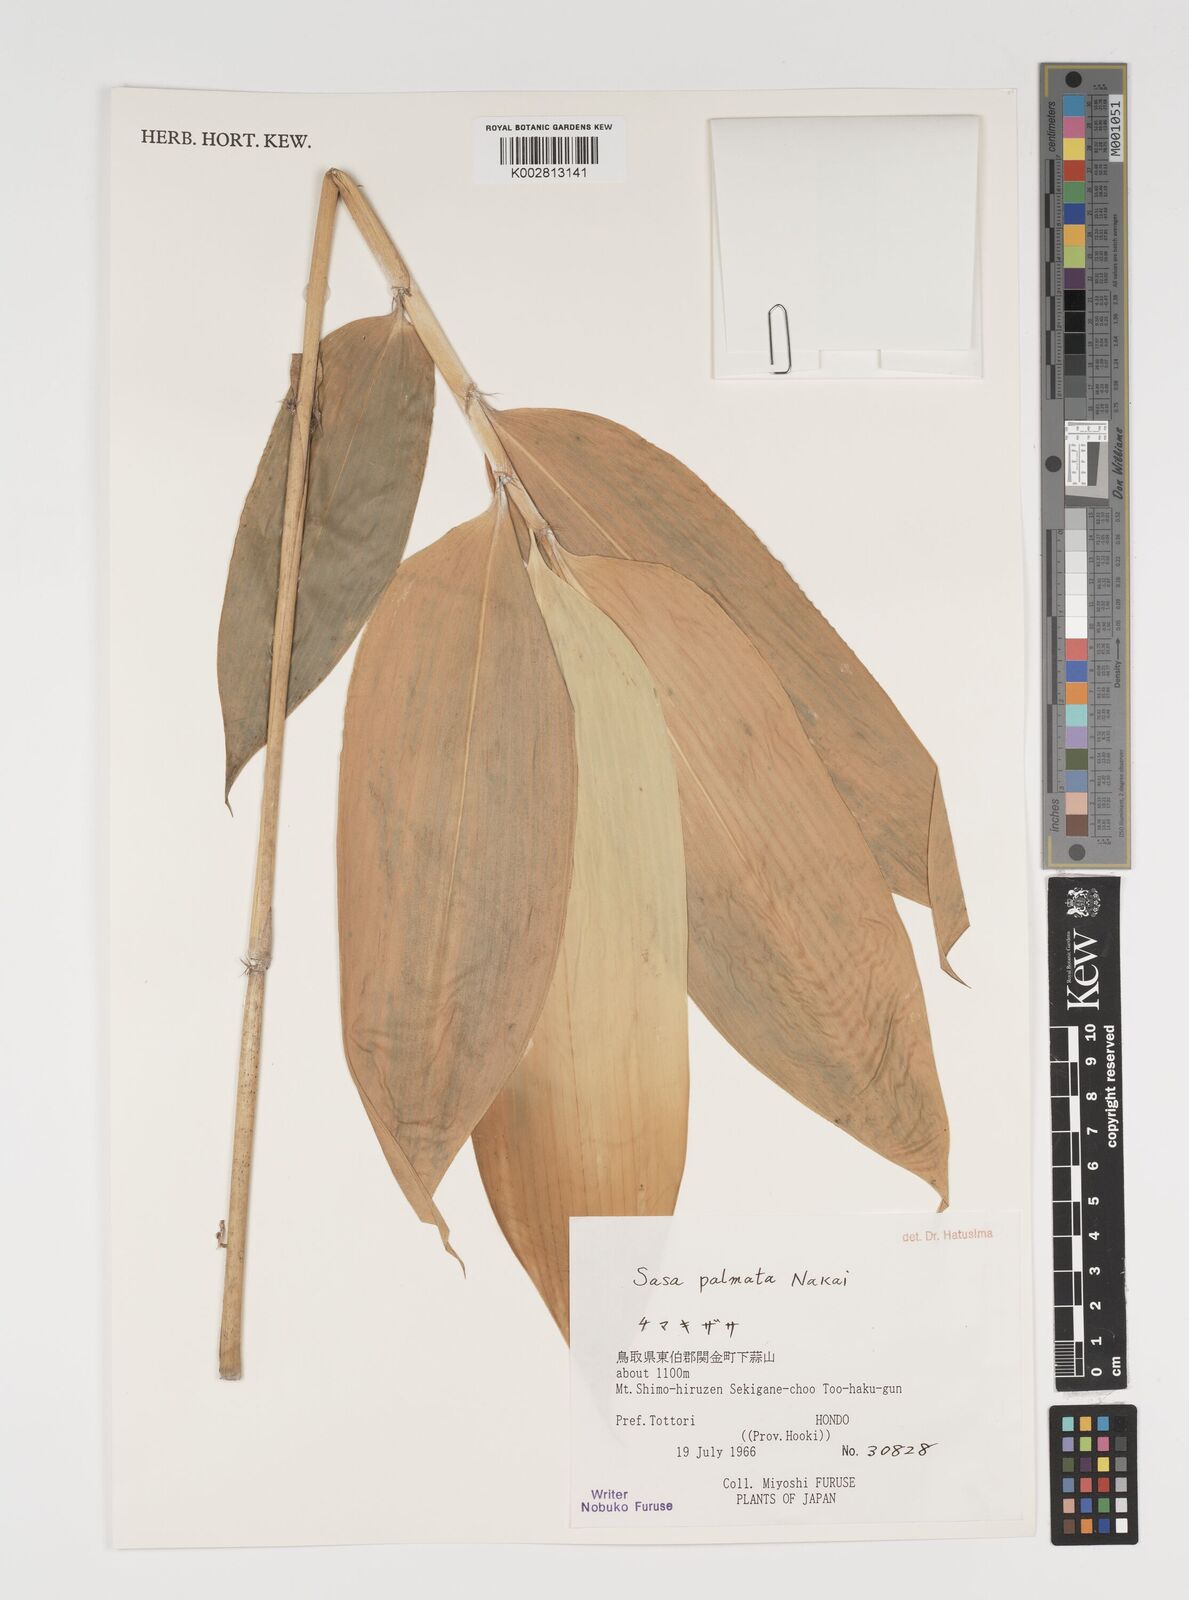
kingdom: Plantae
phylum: Tracheophyta
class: Liliopsida
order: Poales
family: Poaceae
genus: Sasa
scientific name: Sasa palmata
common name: Broad-leaved bamboo
